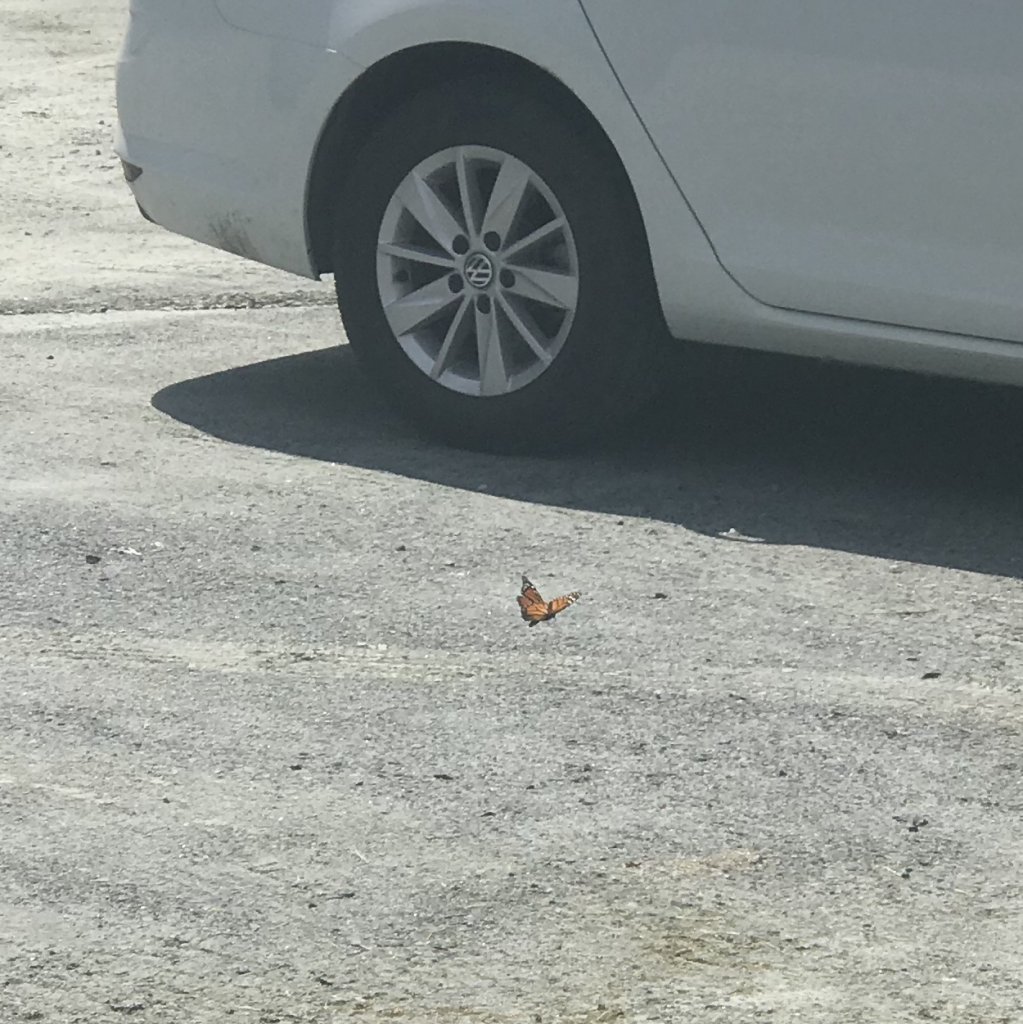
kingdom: Animalia
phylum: Arthropoda
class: Insecta
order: Lepidoptera
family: Nymphalidae
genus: Danaus
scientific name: Danaus plexippus
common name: Monarch
